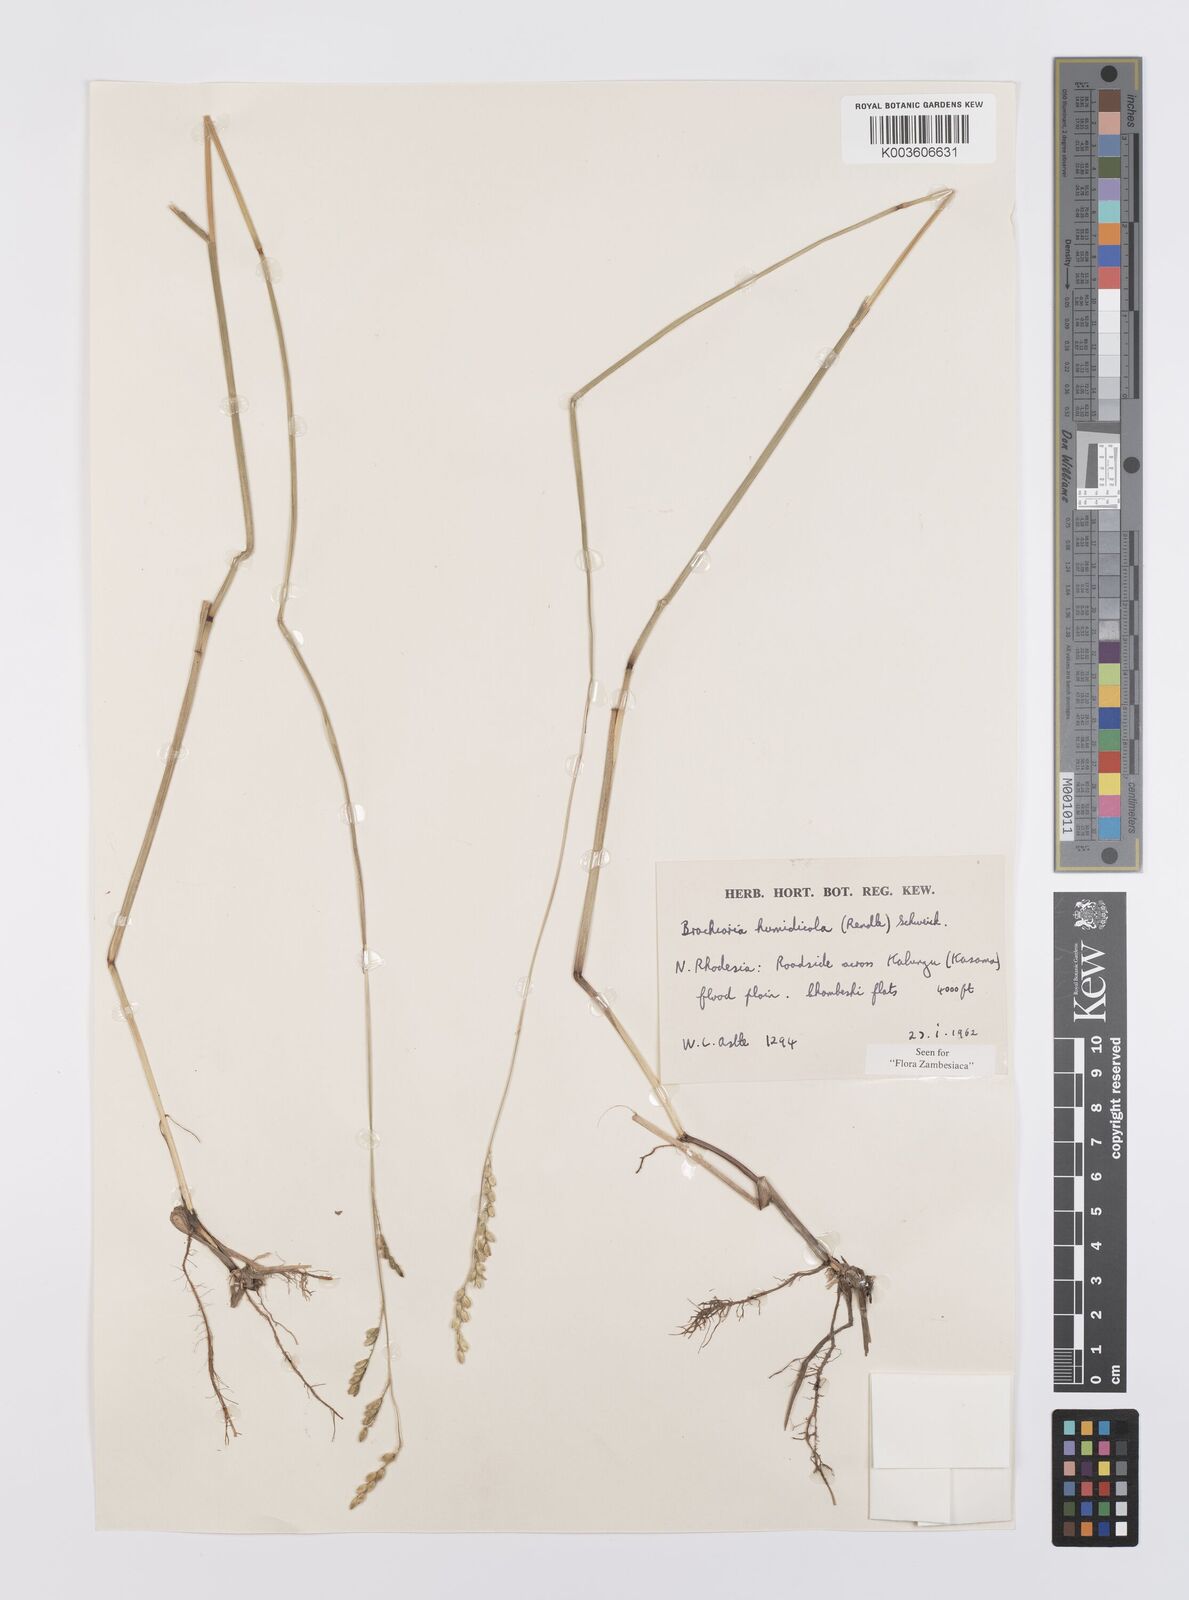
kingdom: Plantae
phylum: Tracheophyta
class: Liliopsida
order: Poales
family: Poaceae
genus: Urochloa
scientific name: Urochloa dictyoneura
